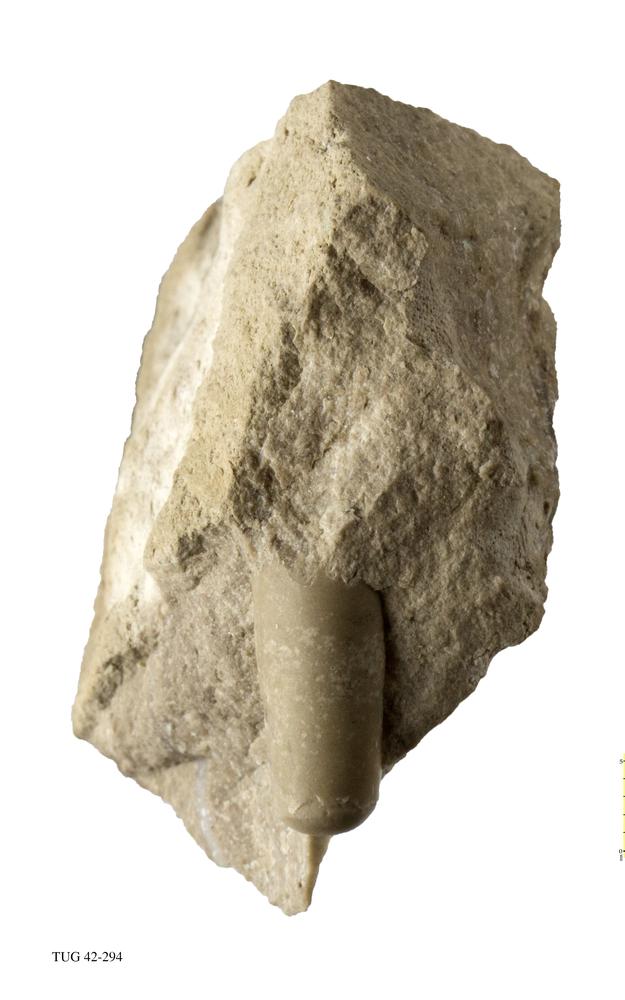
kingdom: Animalia
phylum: Mollusca
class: Cephalopoda
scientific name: Cephalopoda
